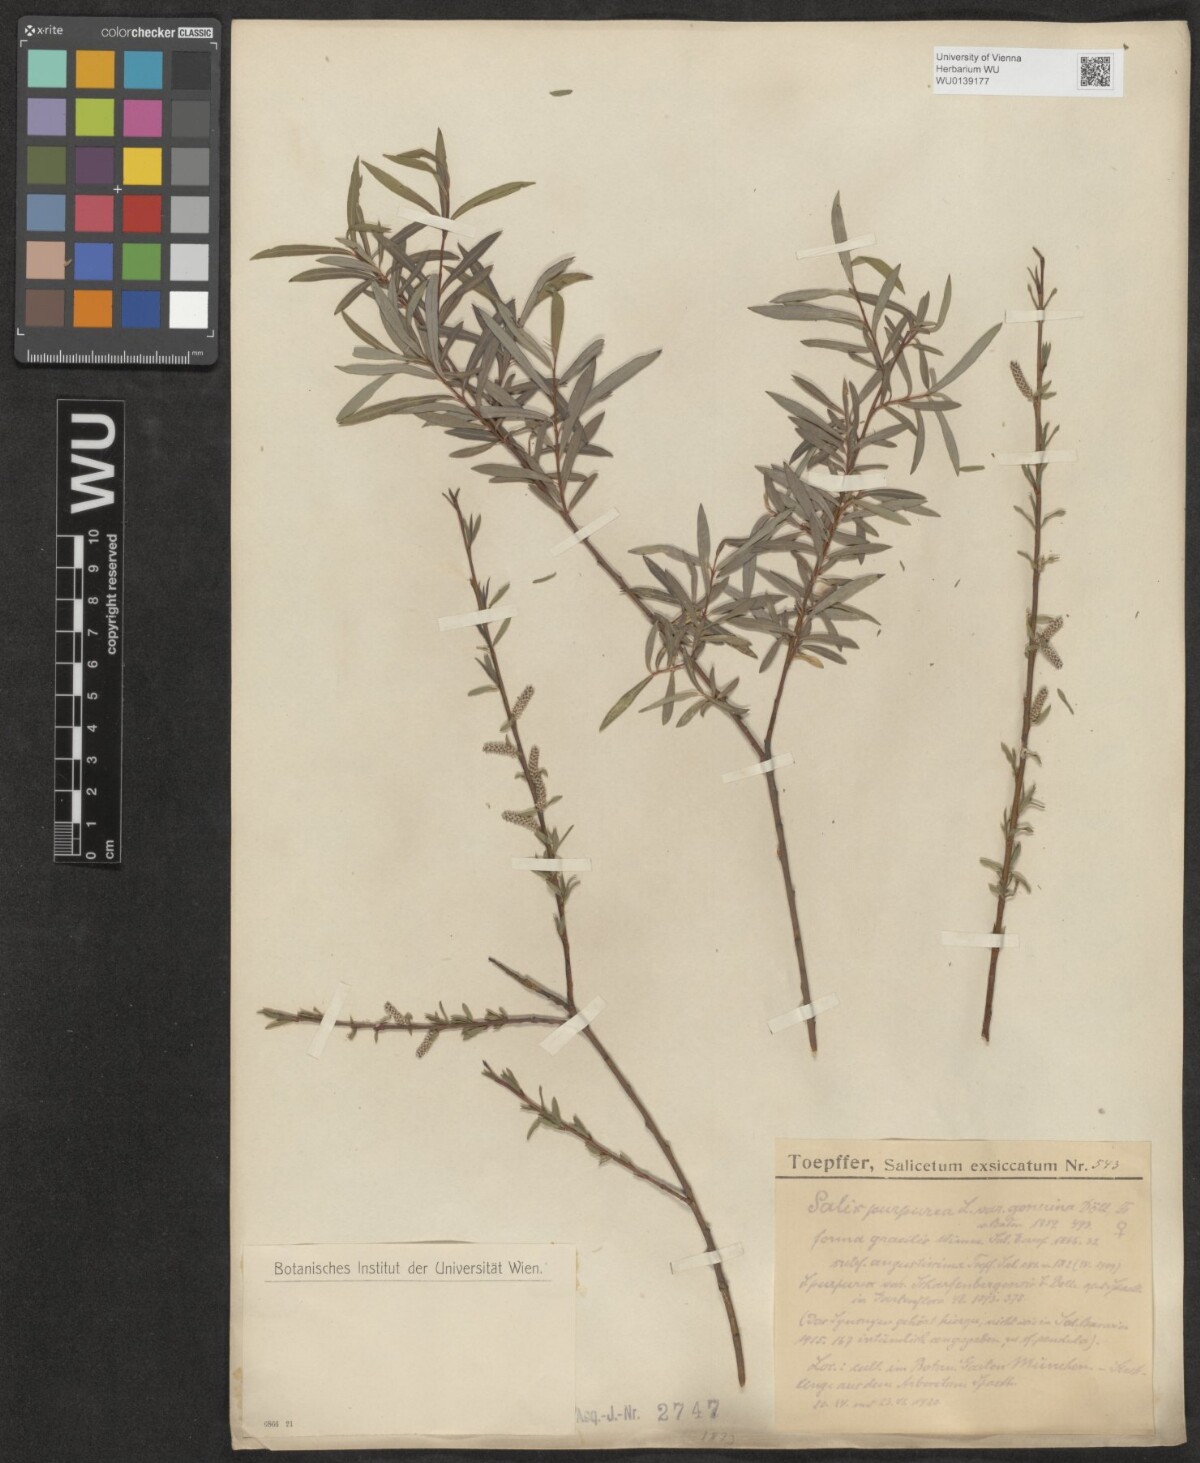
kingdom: Plantae
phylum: Tracheophyta
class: Magnoliopsida
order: Malpighiales
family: Salicaceae
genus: Salix
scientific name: Salix purpurea
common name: Purple willow
